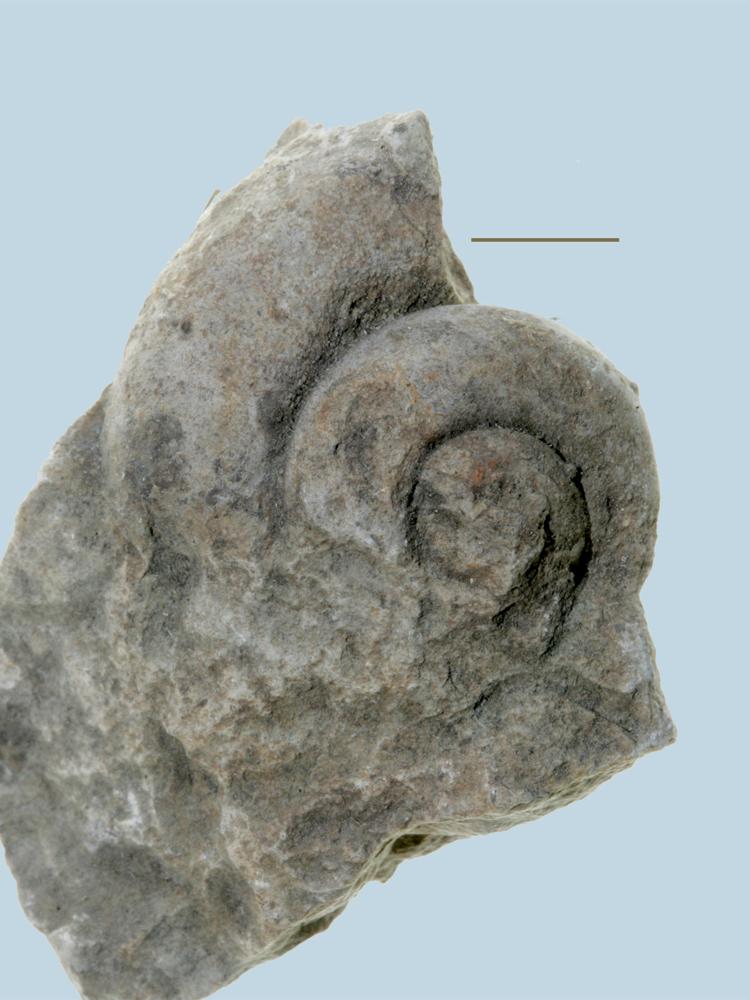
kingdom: Animalia
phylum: Mollusca
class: Gastropoda
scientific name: Gastropoda
